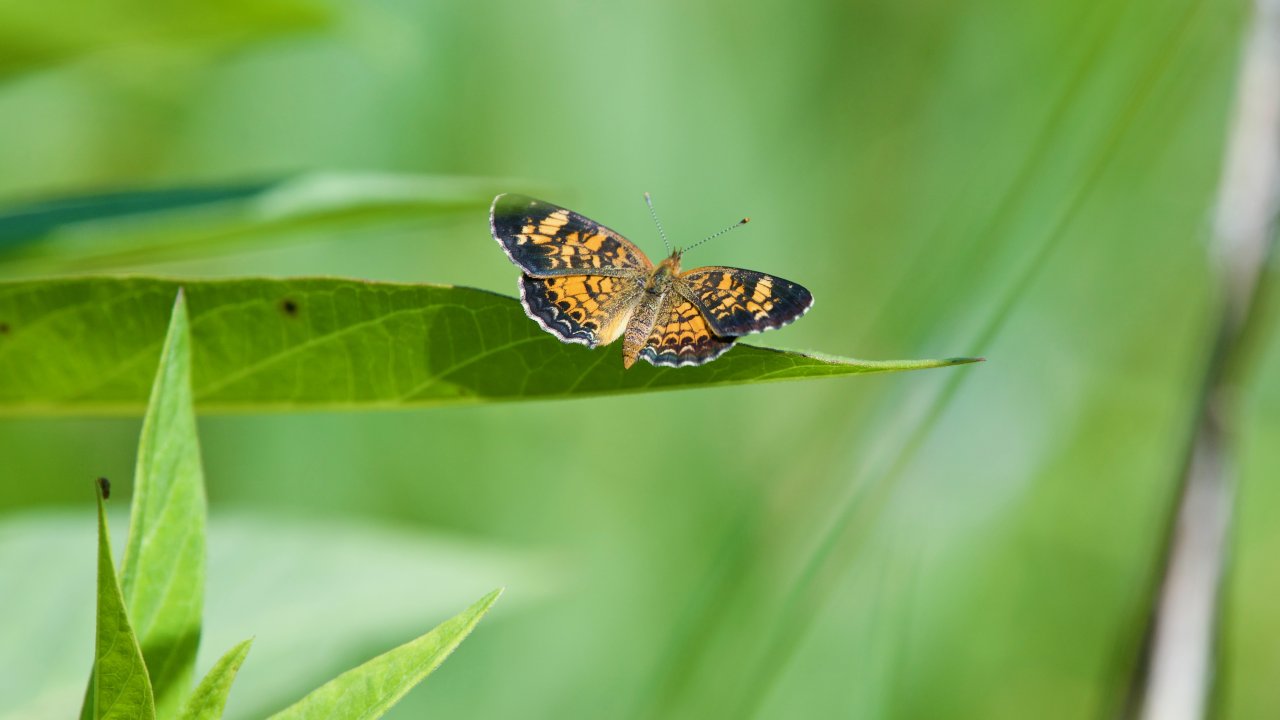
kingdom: Animalia
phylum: Arthropoda
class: Insecta
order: Lepidoptera
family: Nymphalidae
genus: Phyciodes
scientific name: Phyciodes tharos
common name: Pearl Crescent
